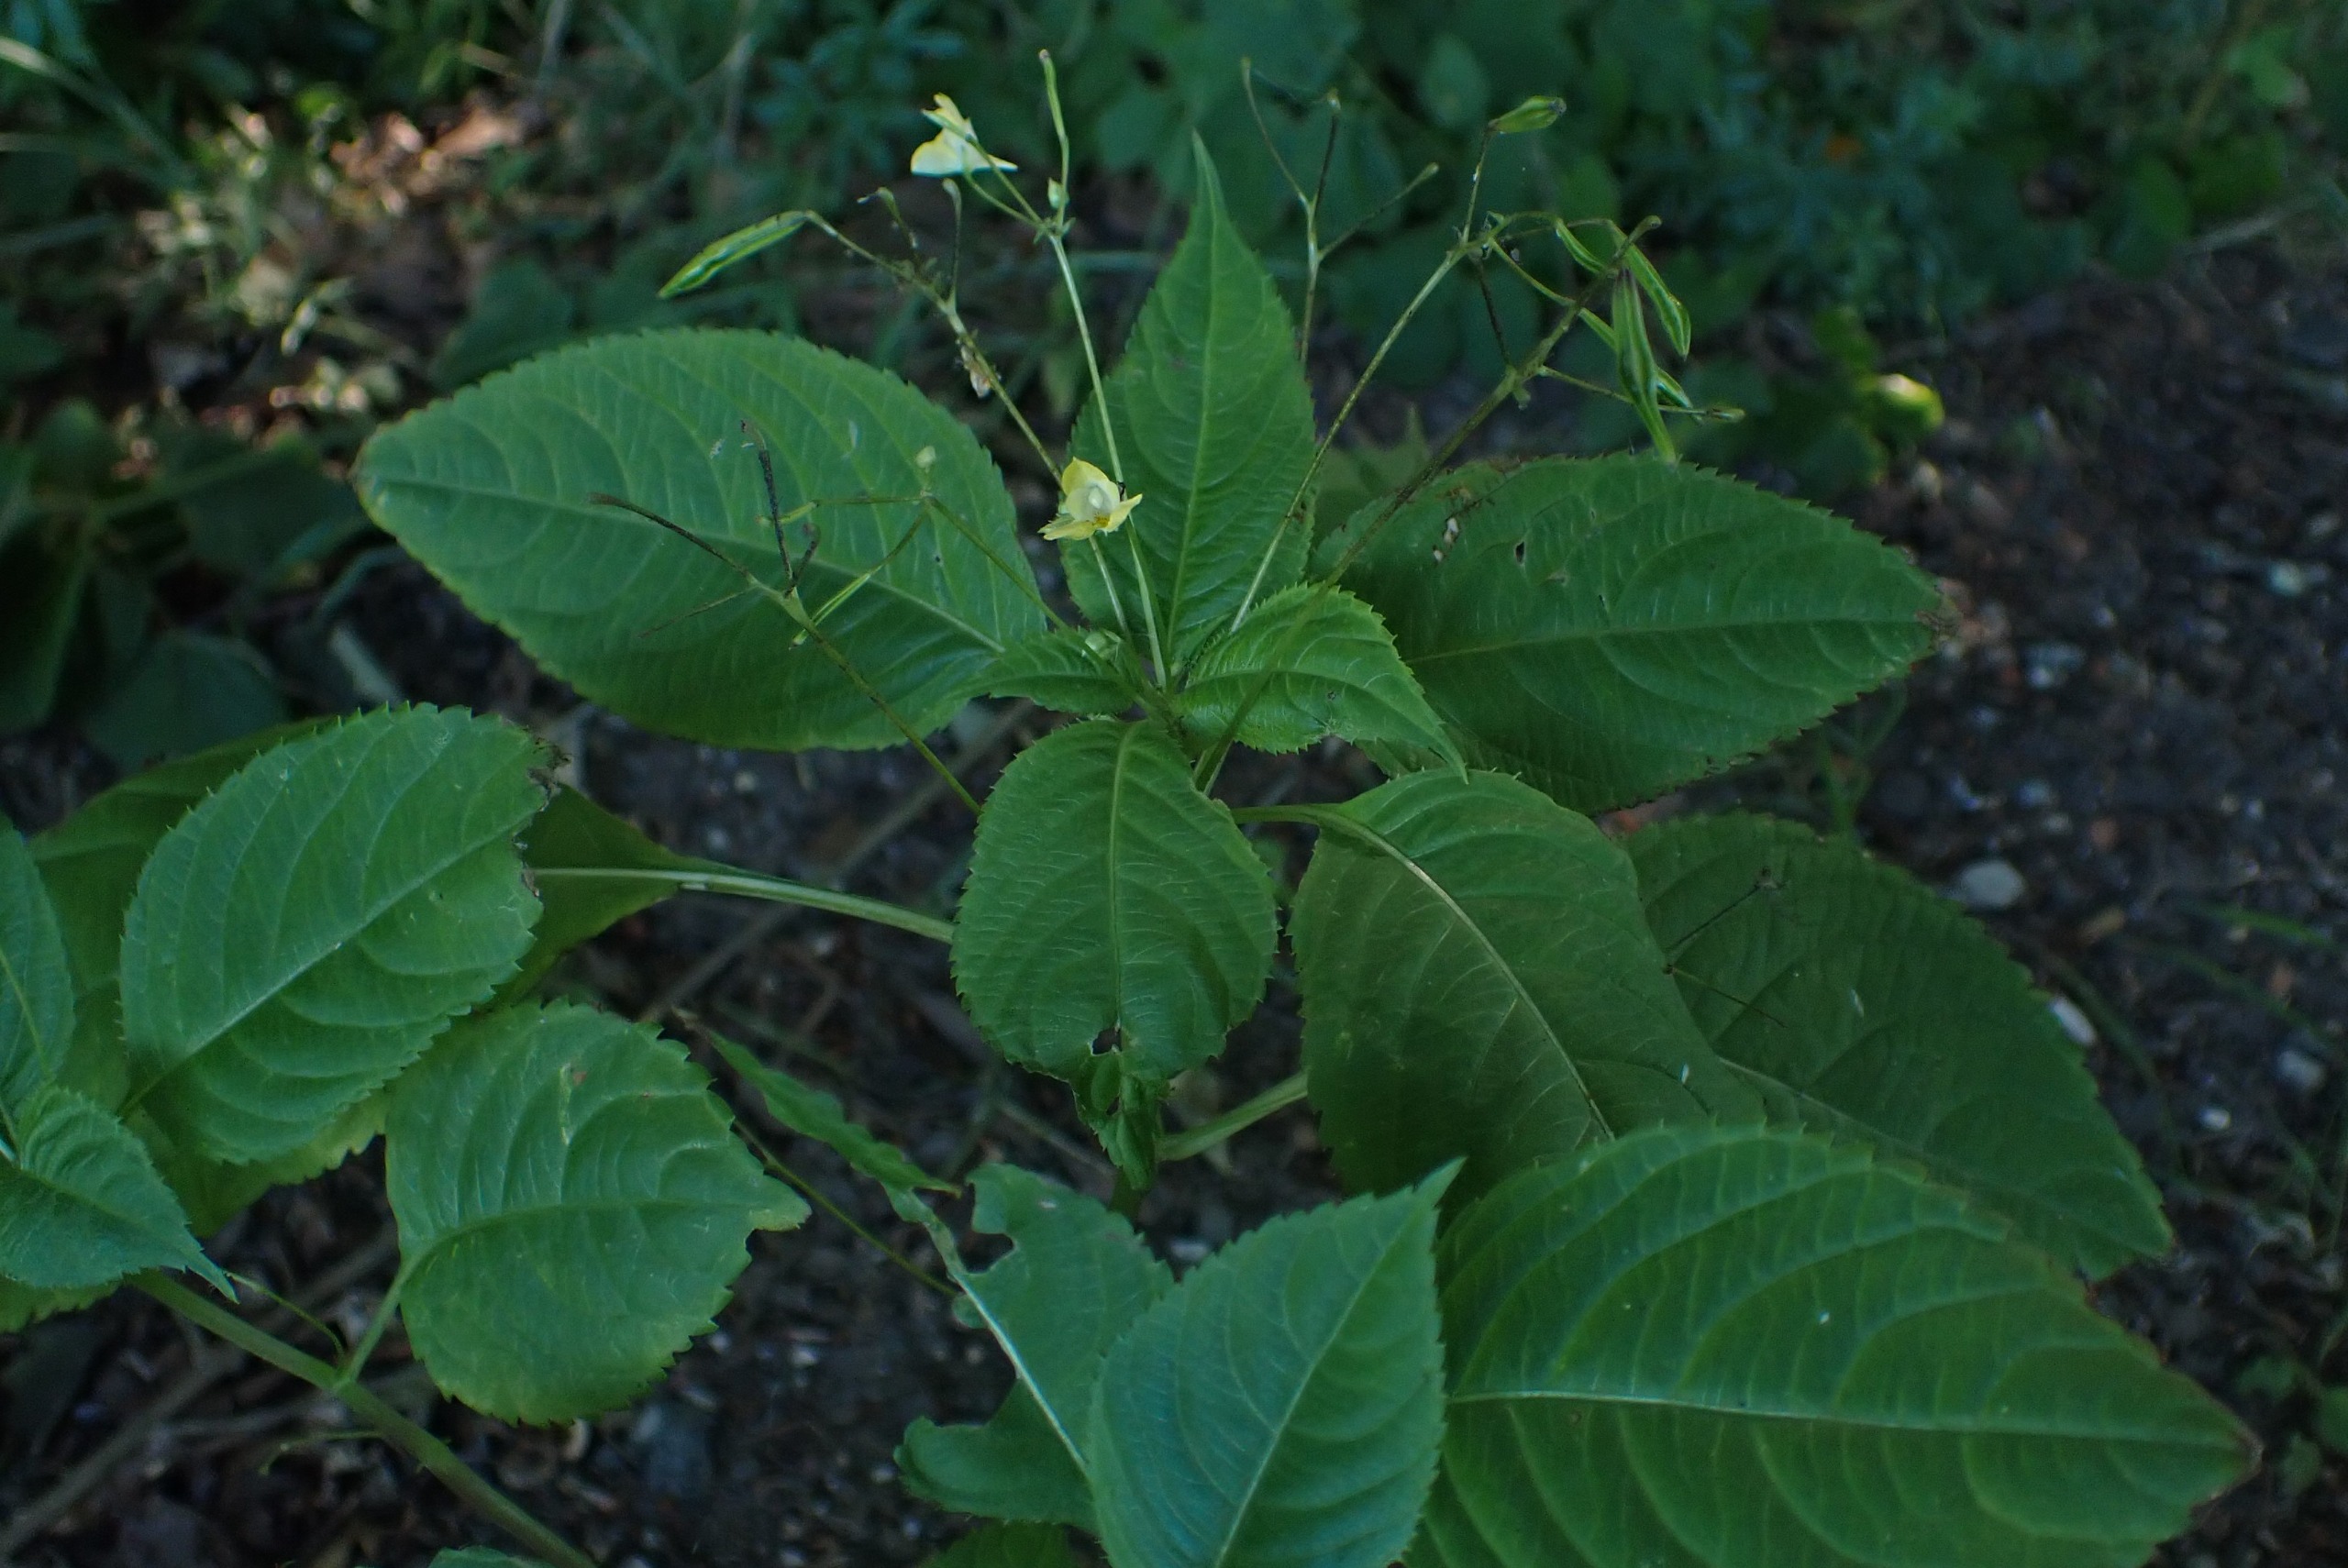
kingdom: Plantae
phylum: Tracheophyta
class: Magnoliopsida
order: Ericales
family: Balsaminaceae
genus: Impatiens
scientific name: Impatiens parviflora
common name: Småblomstret balsamin
